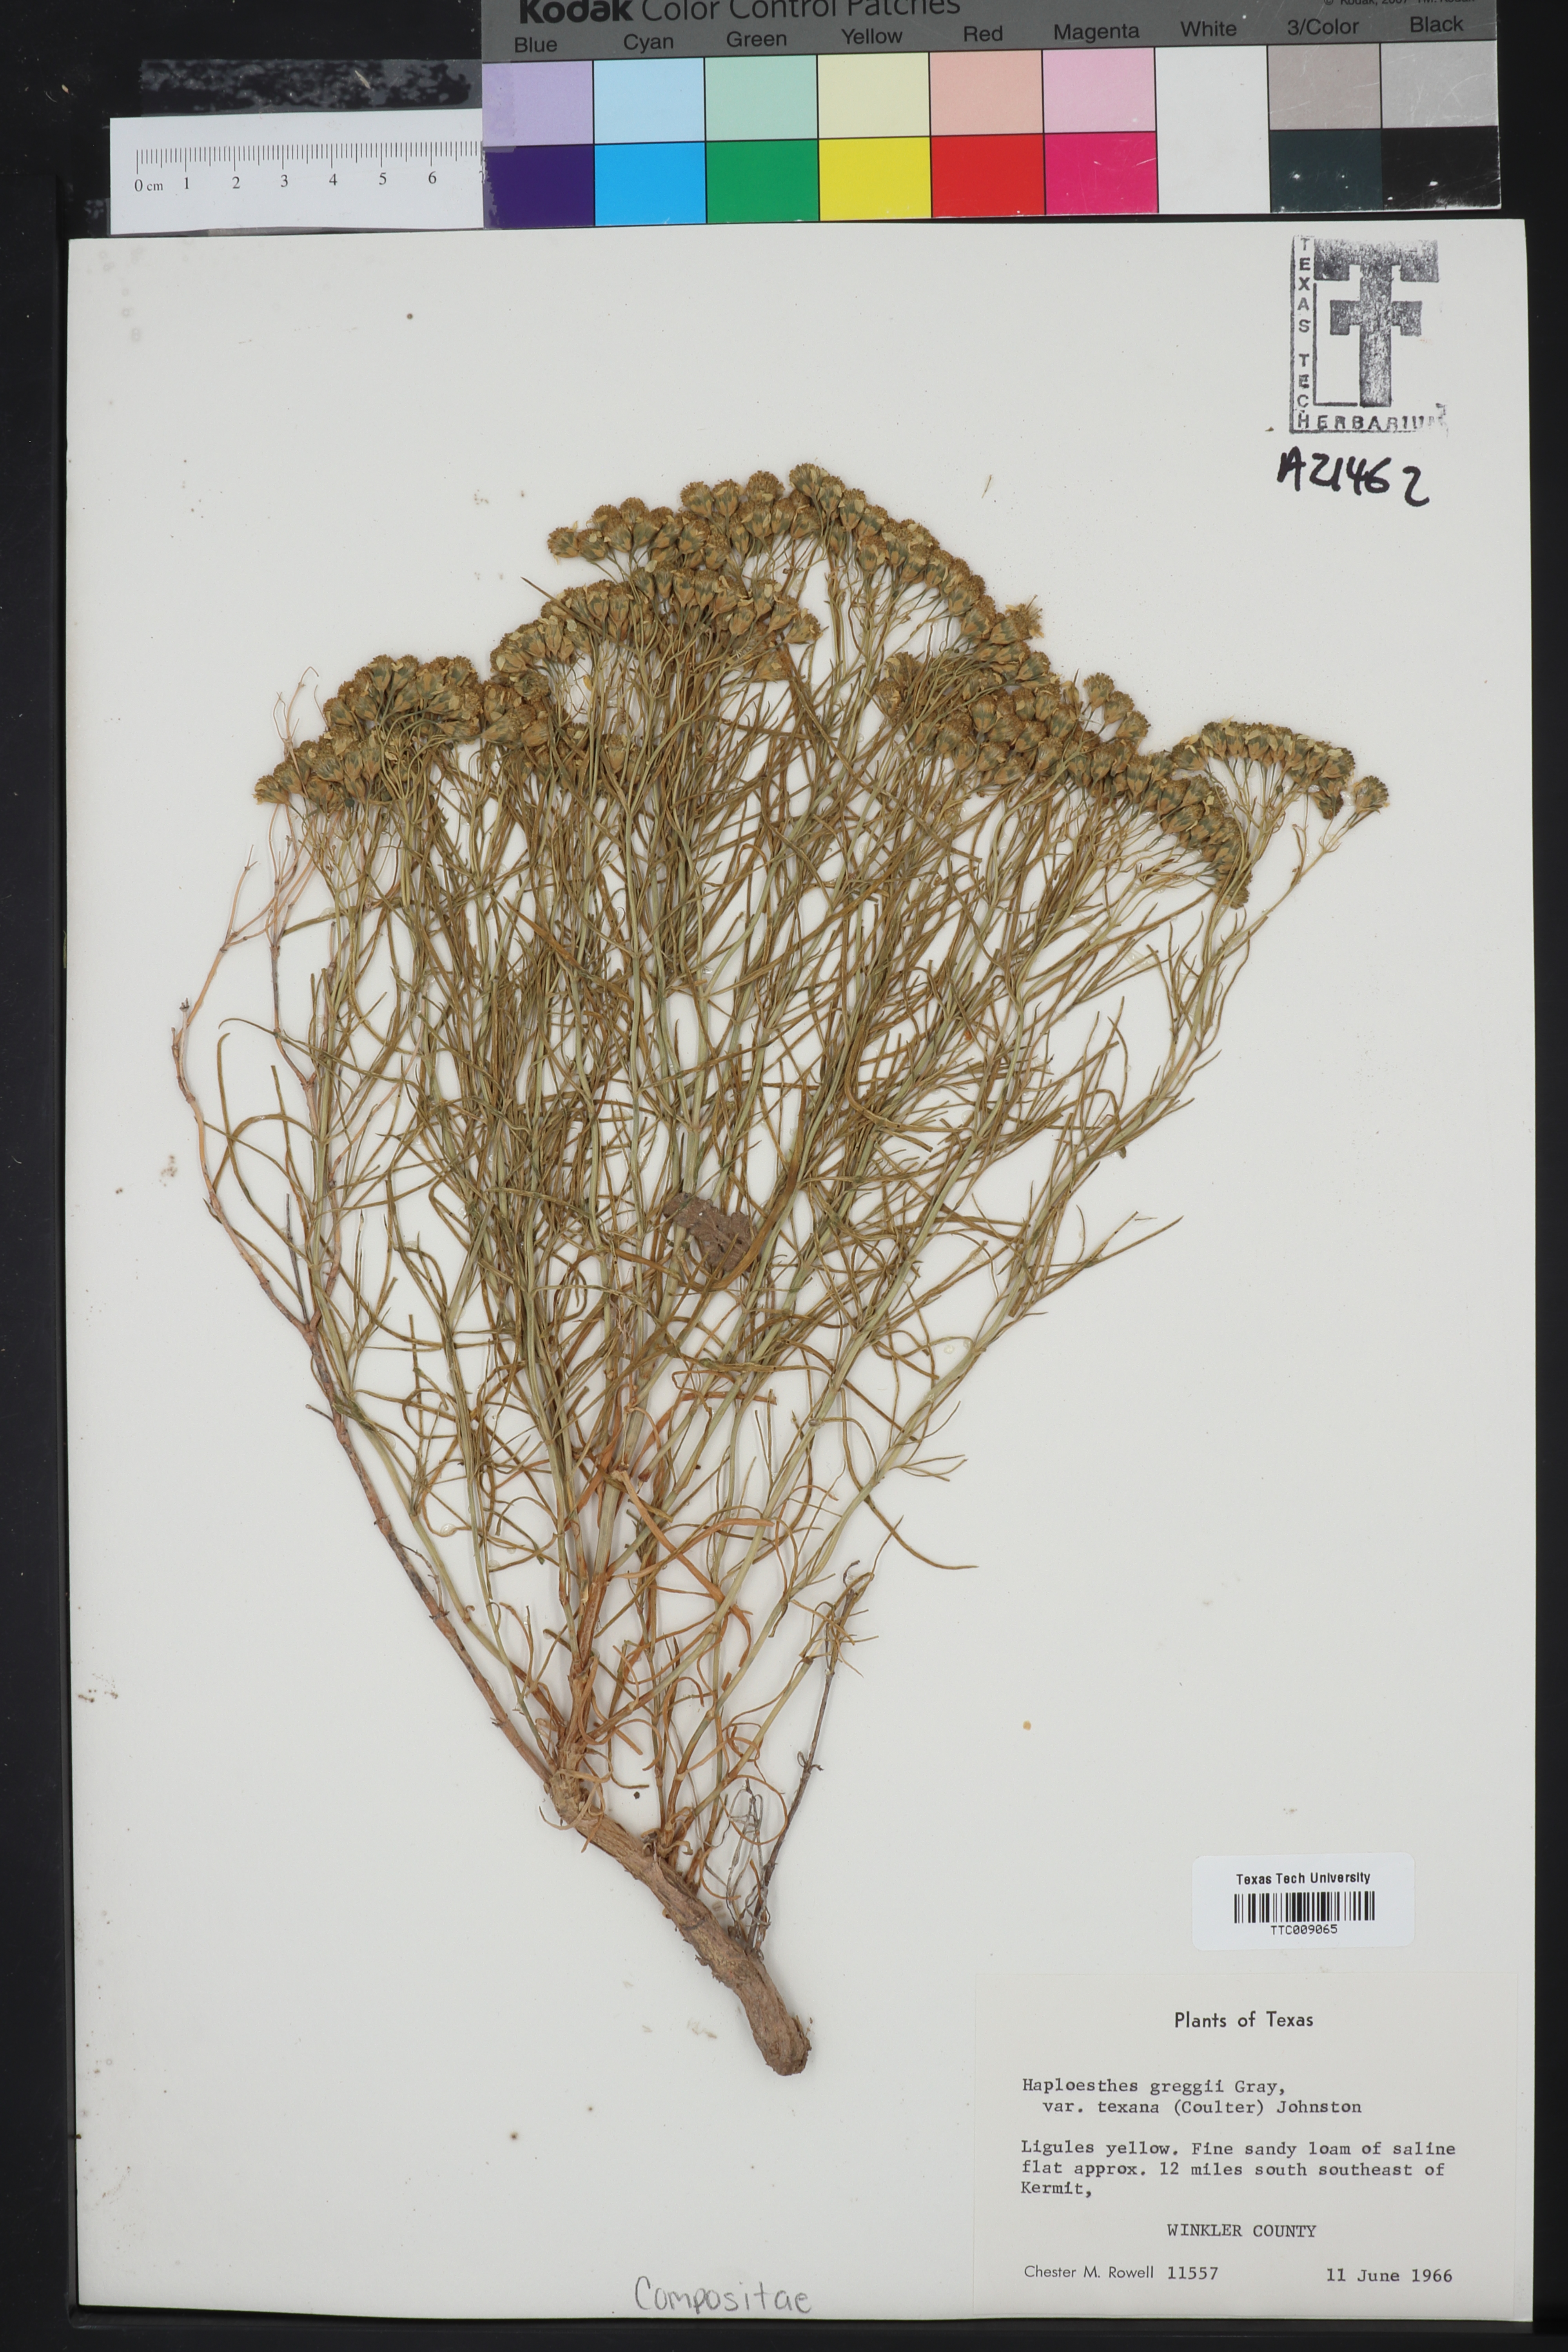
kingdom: Plantae
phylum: Tracheophyta
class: Magnoliopsida
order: Asterales
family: Asteraceae
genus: Haploesthes
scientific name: Haploesthes greggii
